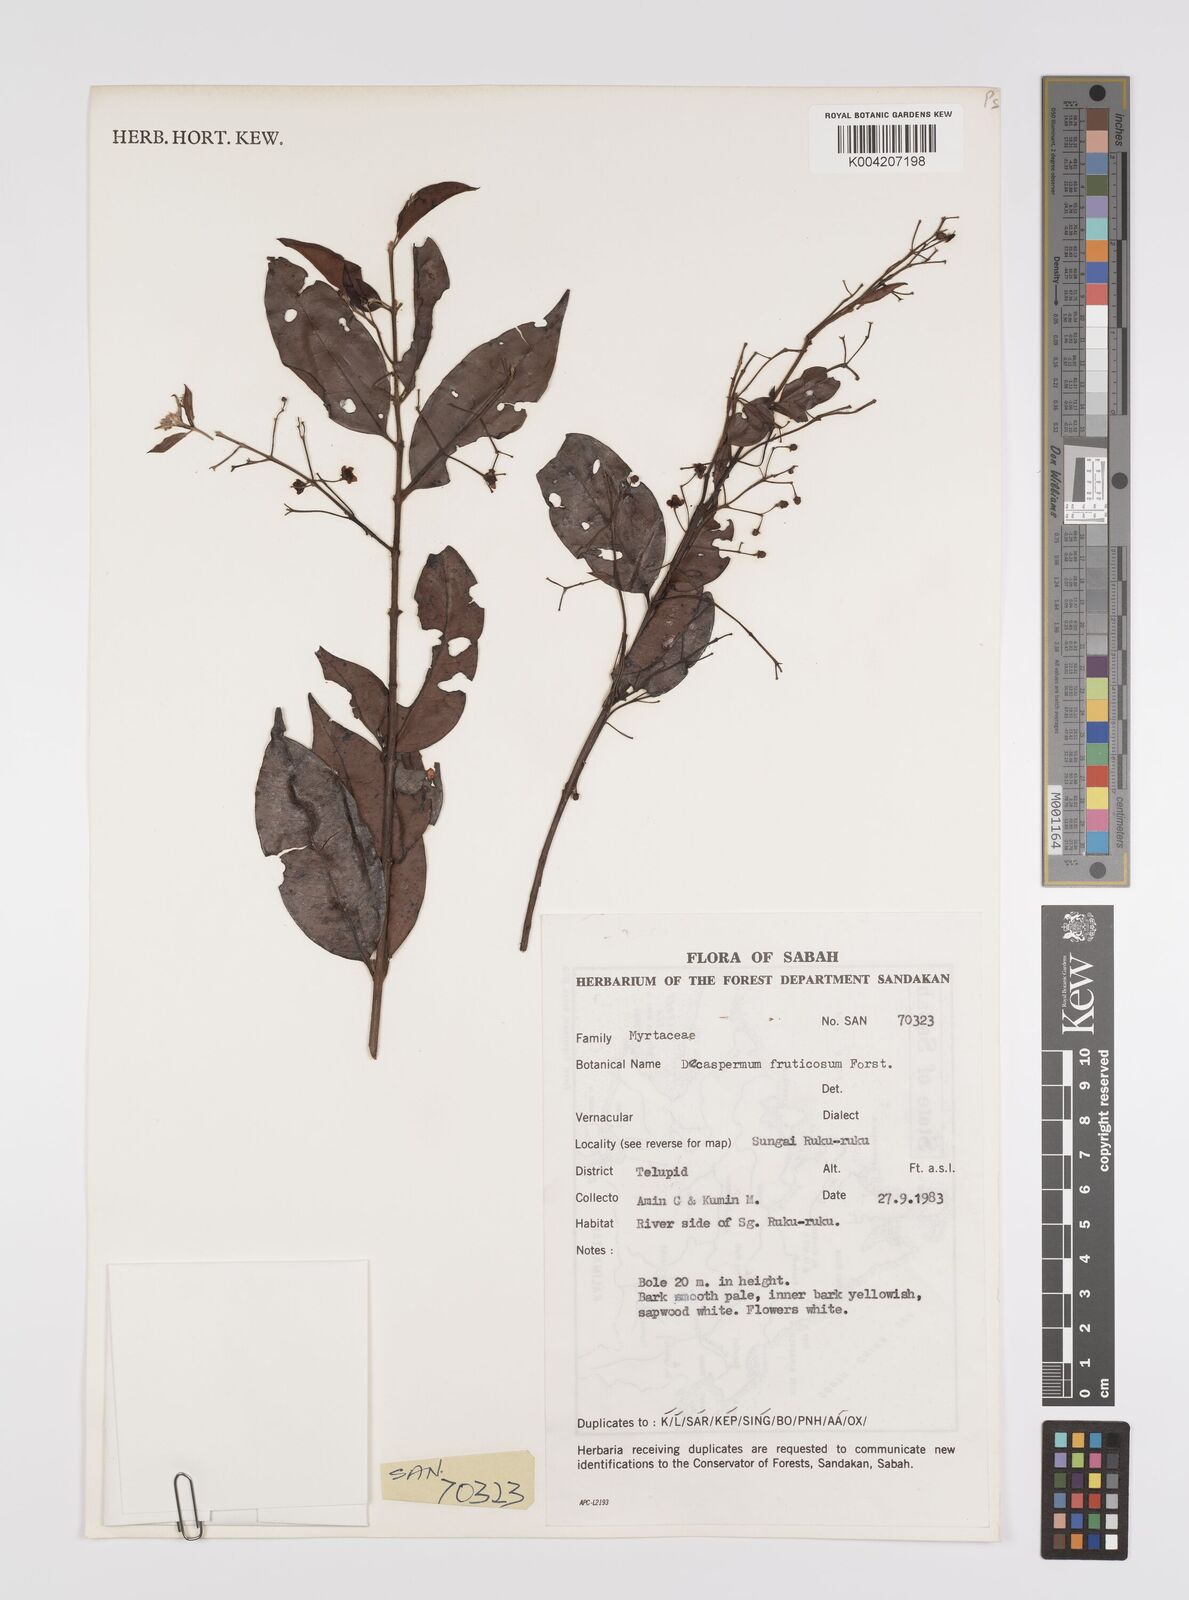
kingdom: Plantae
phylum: Tracheophyta
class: Magnoliopsida
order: Myrtales
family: Myrtaceae
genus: Decaspermum
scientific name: Decaspermum parviflorum
